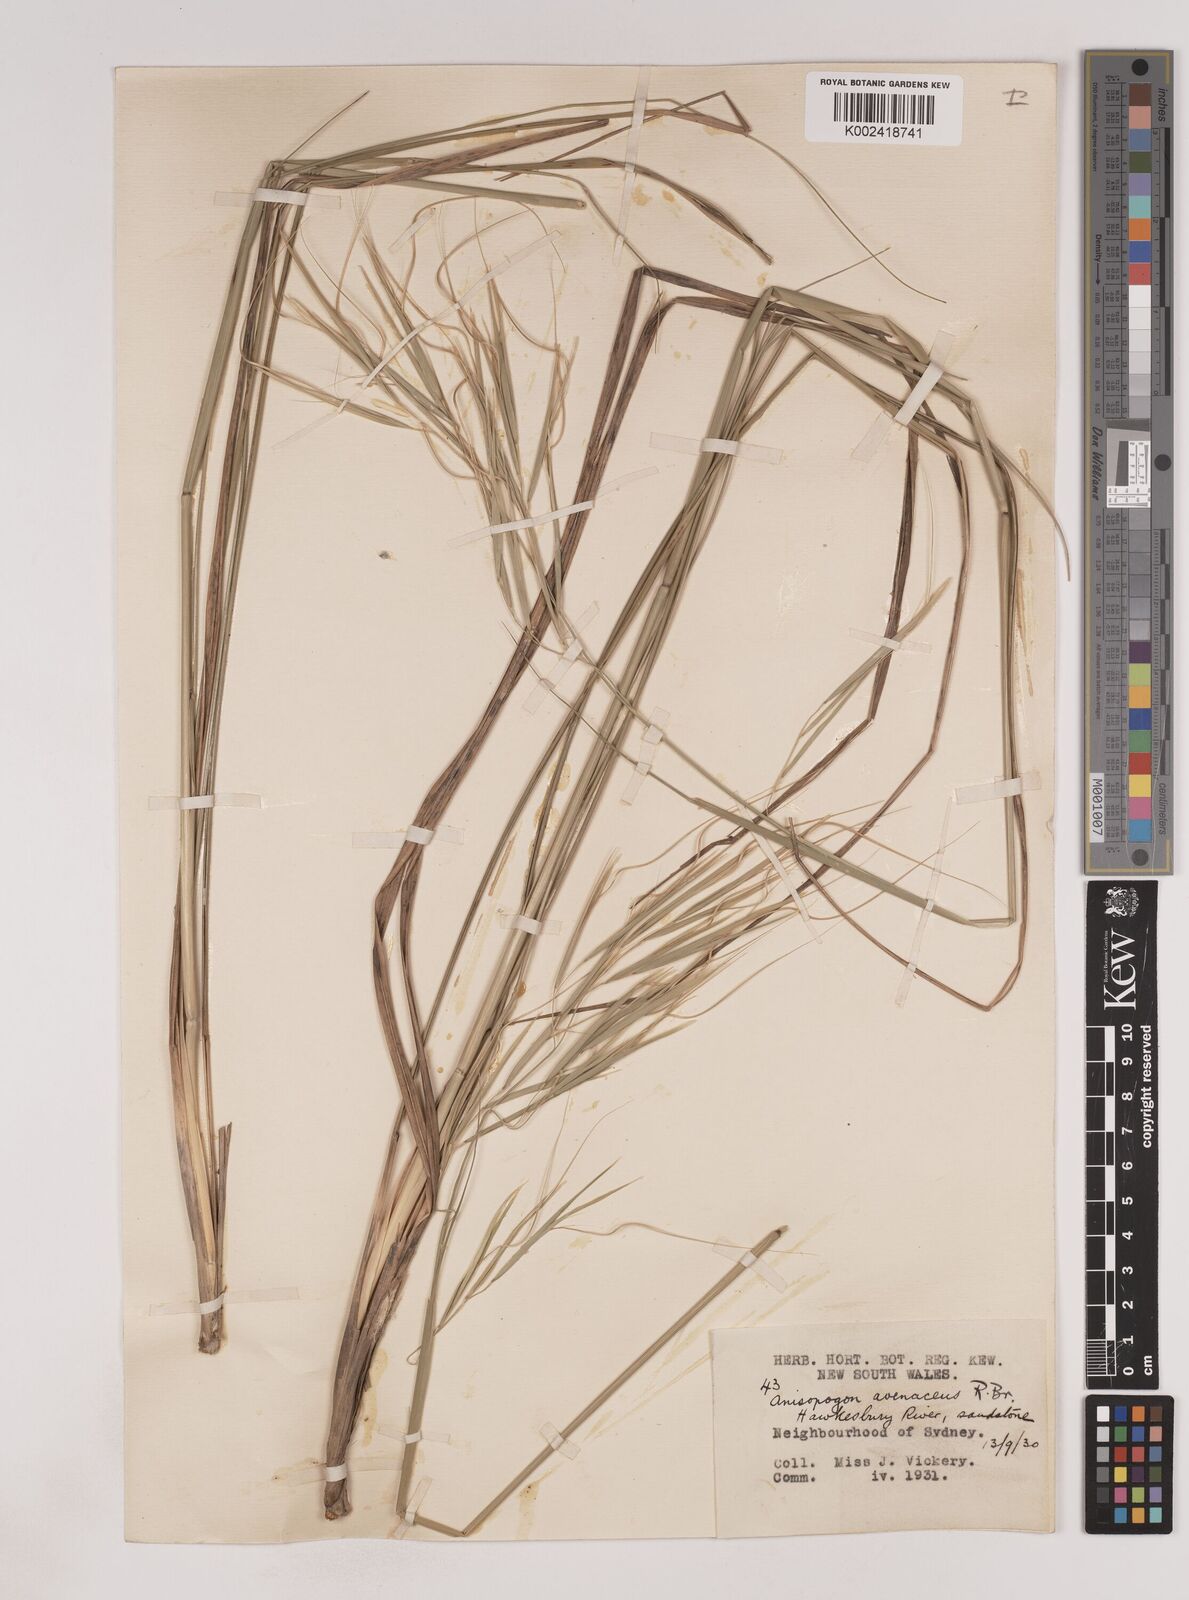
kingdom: Plantae
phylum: Tracheophyta
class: Liliopsida
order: Poales
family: Poaceae
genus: Anisopogon
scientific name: Anisopogon avenaceus
